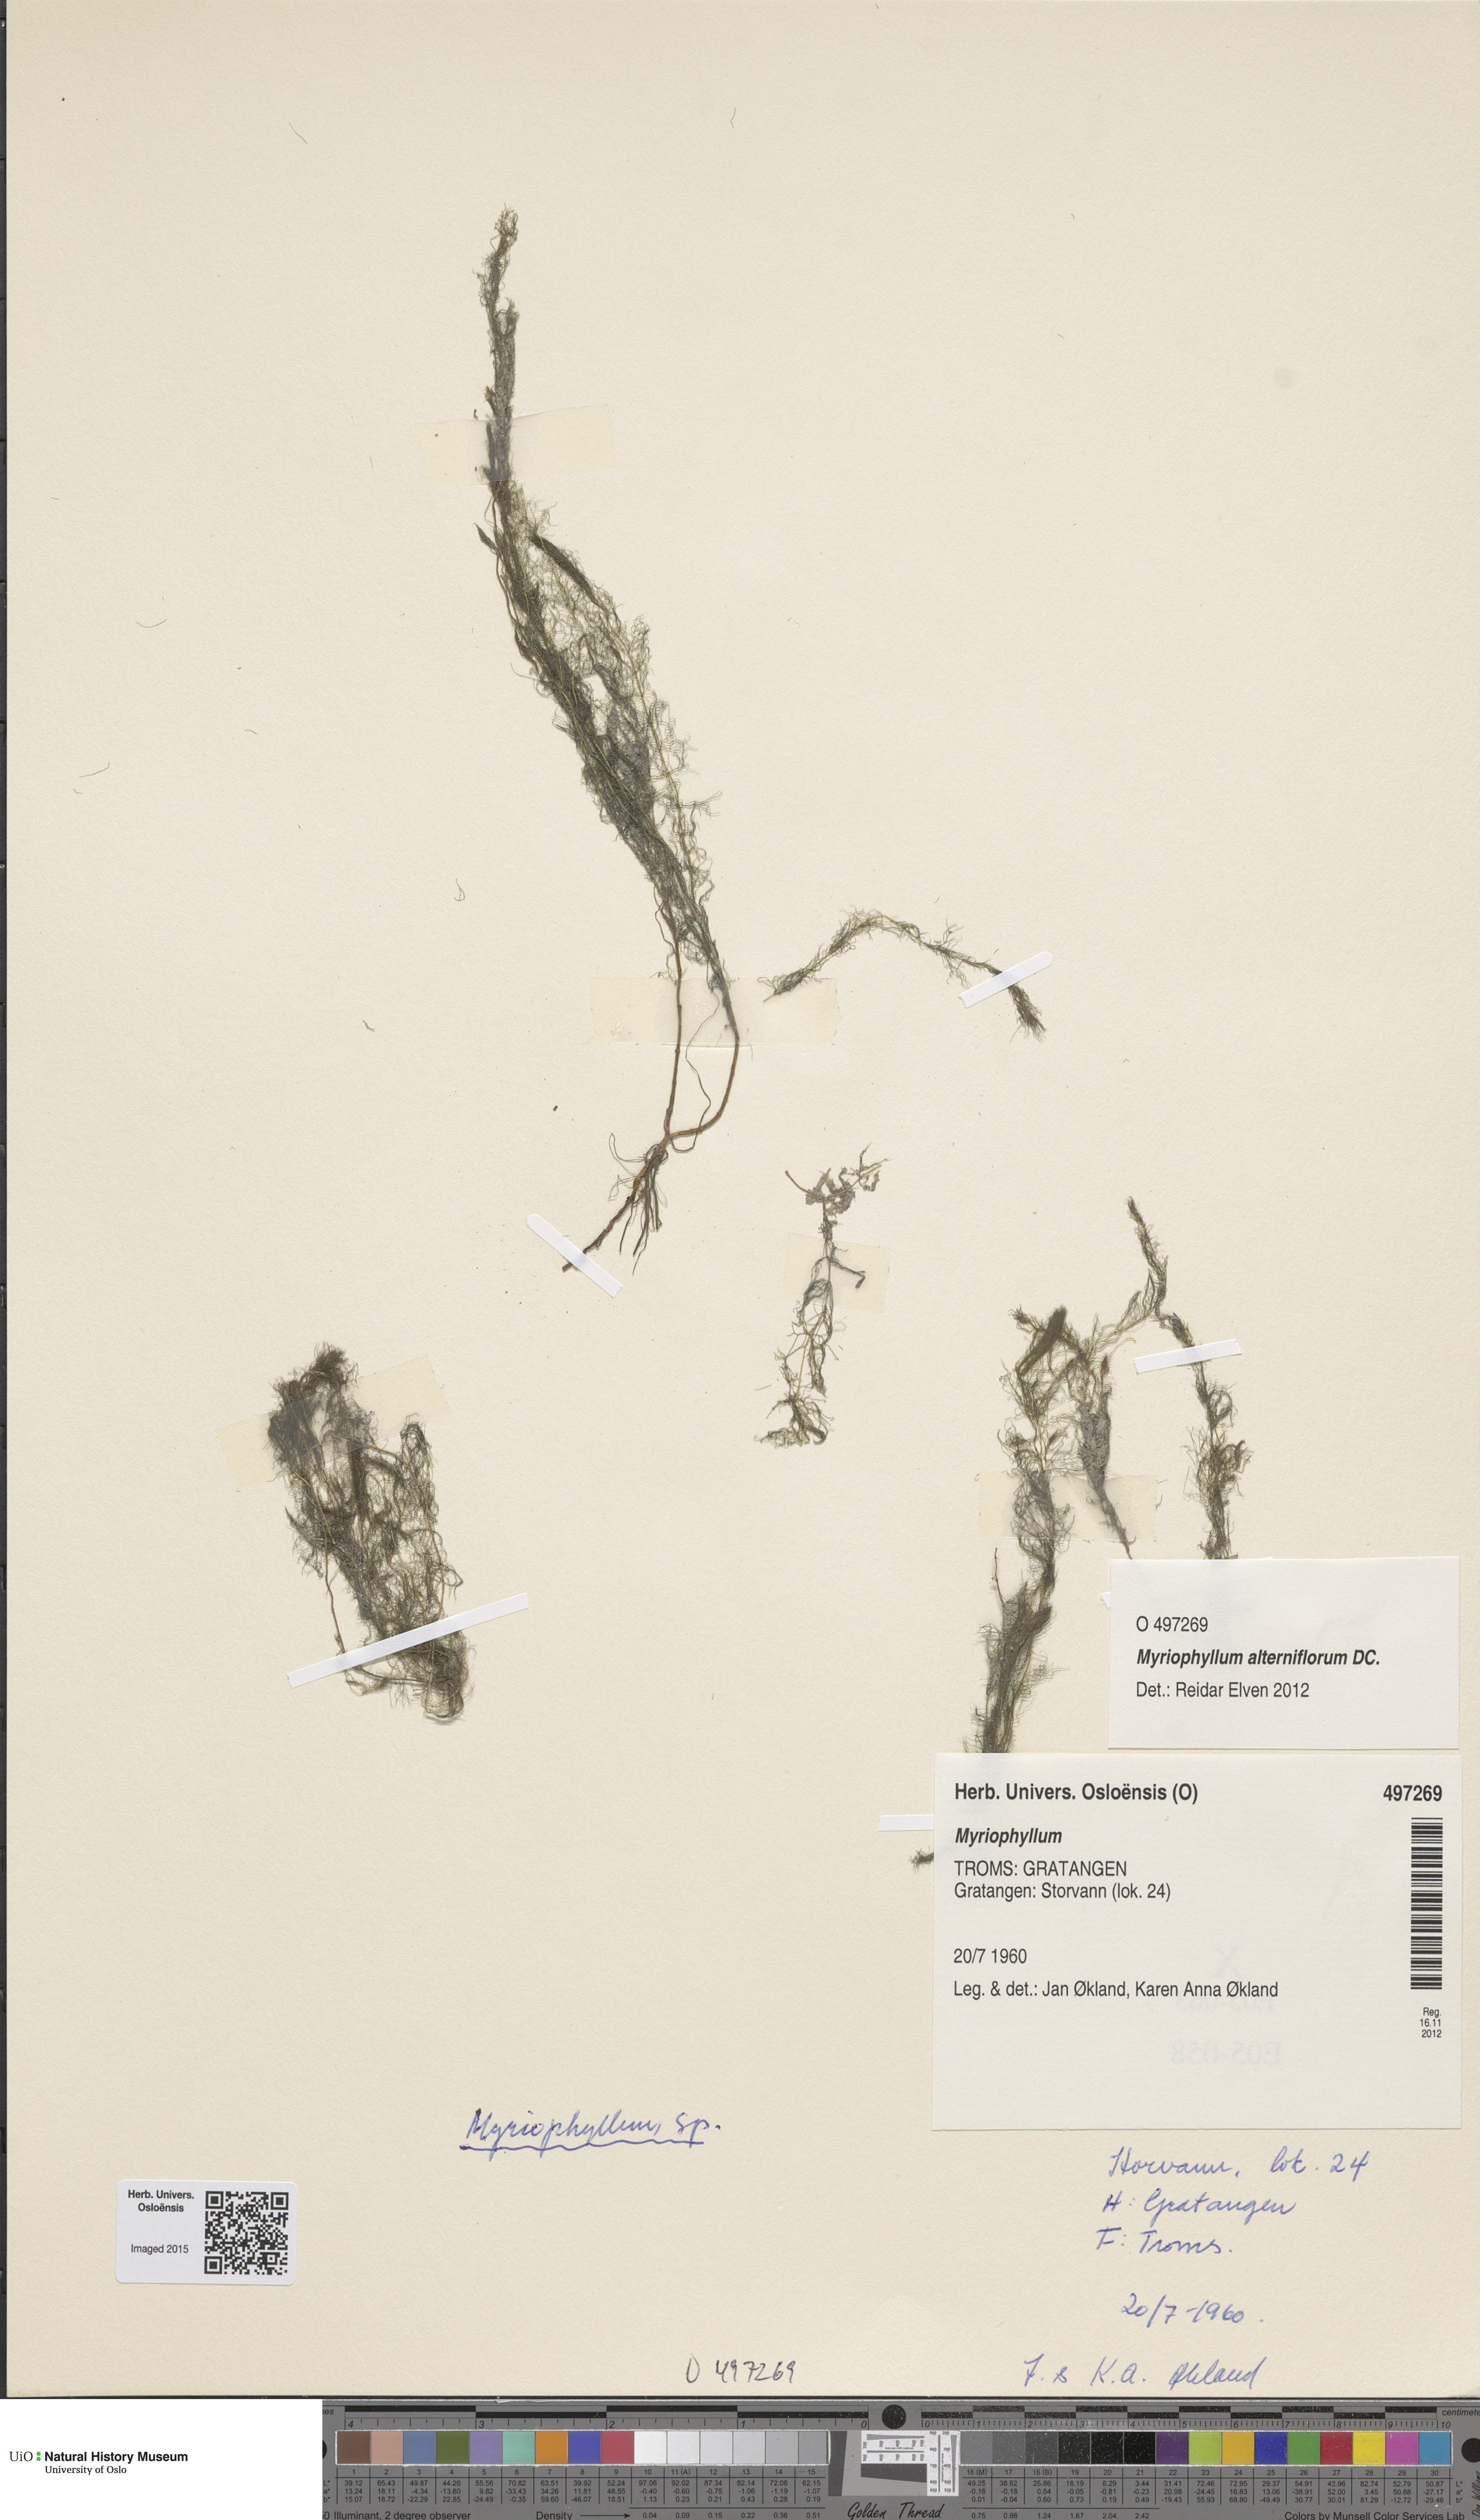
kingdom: Plantae
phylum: Tracheophyta
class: Magnoliopsida
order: Saxifragales
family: Haloragaceae
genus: Myriophyllum
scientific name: Myriophyllum
